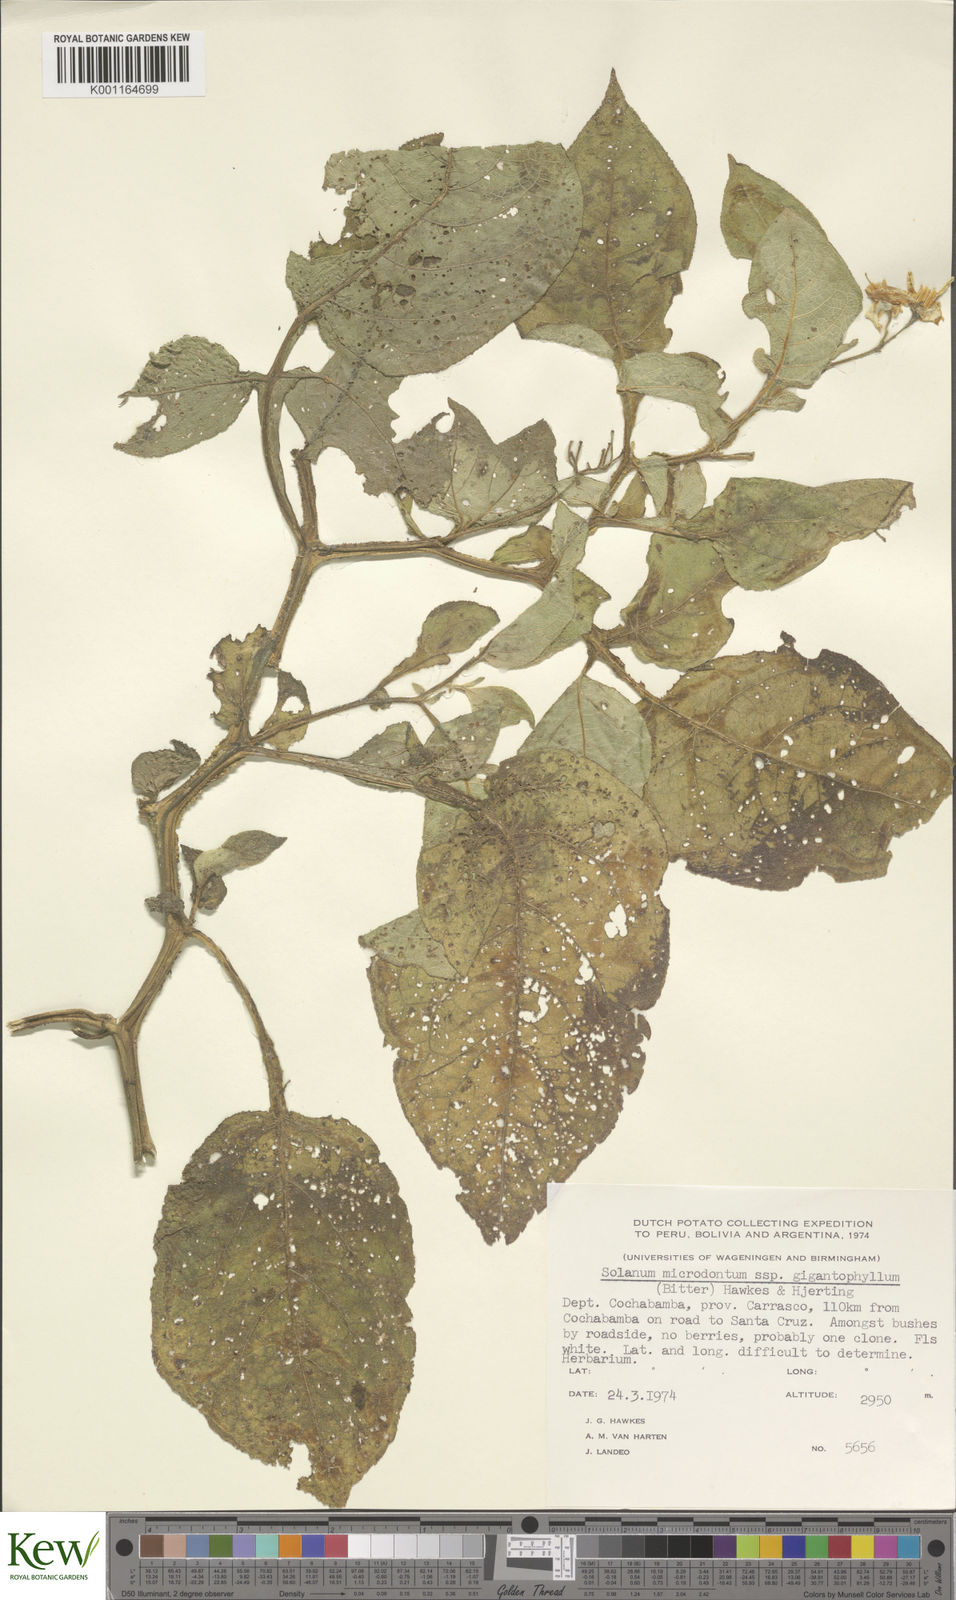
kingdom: Plantae
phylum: Tracheophyta
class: Magnoliopsida
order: Solanales
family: Solanaceae
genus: Solanum
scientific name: Solanum microdontum
